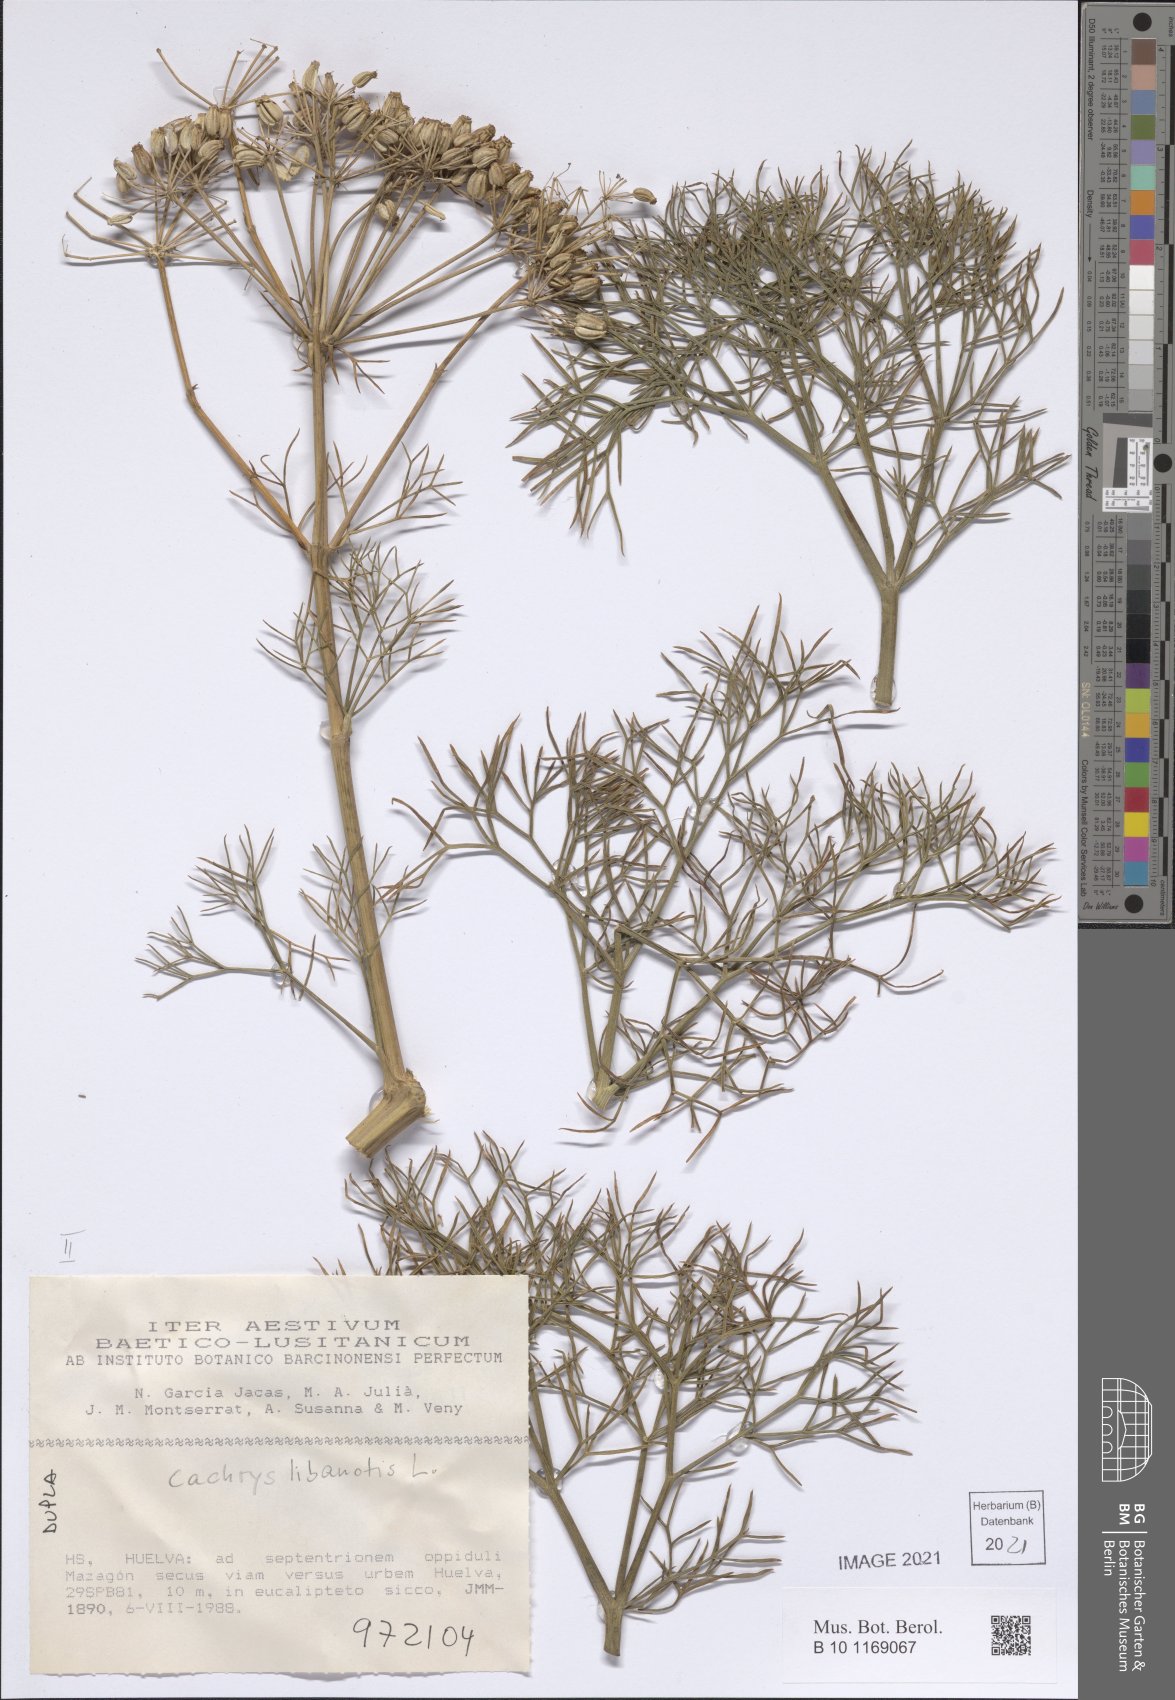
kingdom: Plantae
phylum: Tracheophyta
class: Magnoliopsida
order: Apiales
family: Apiaceae
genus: Cachrys
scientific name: Cachrys libanotis
